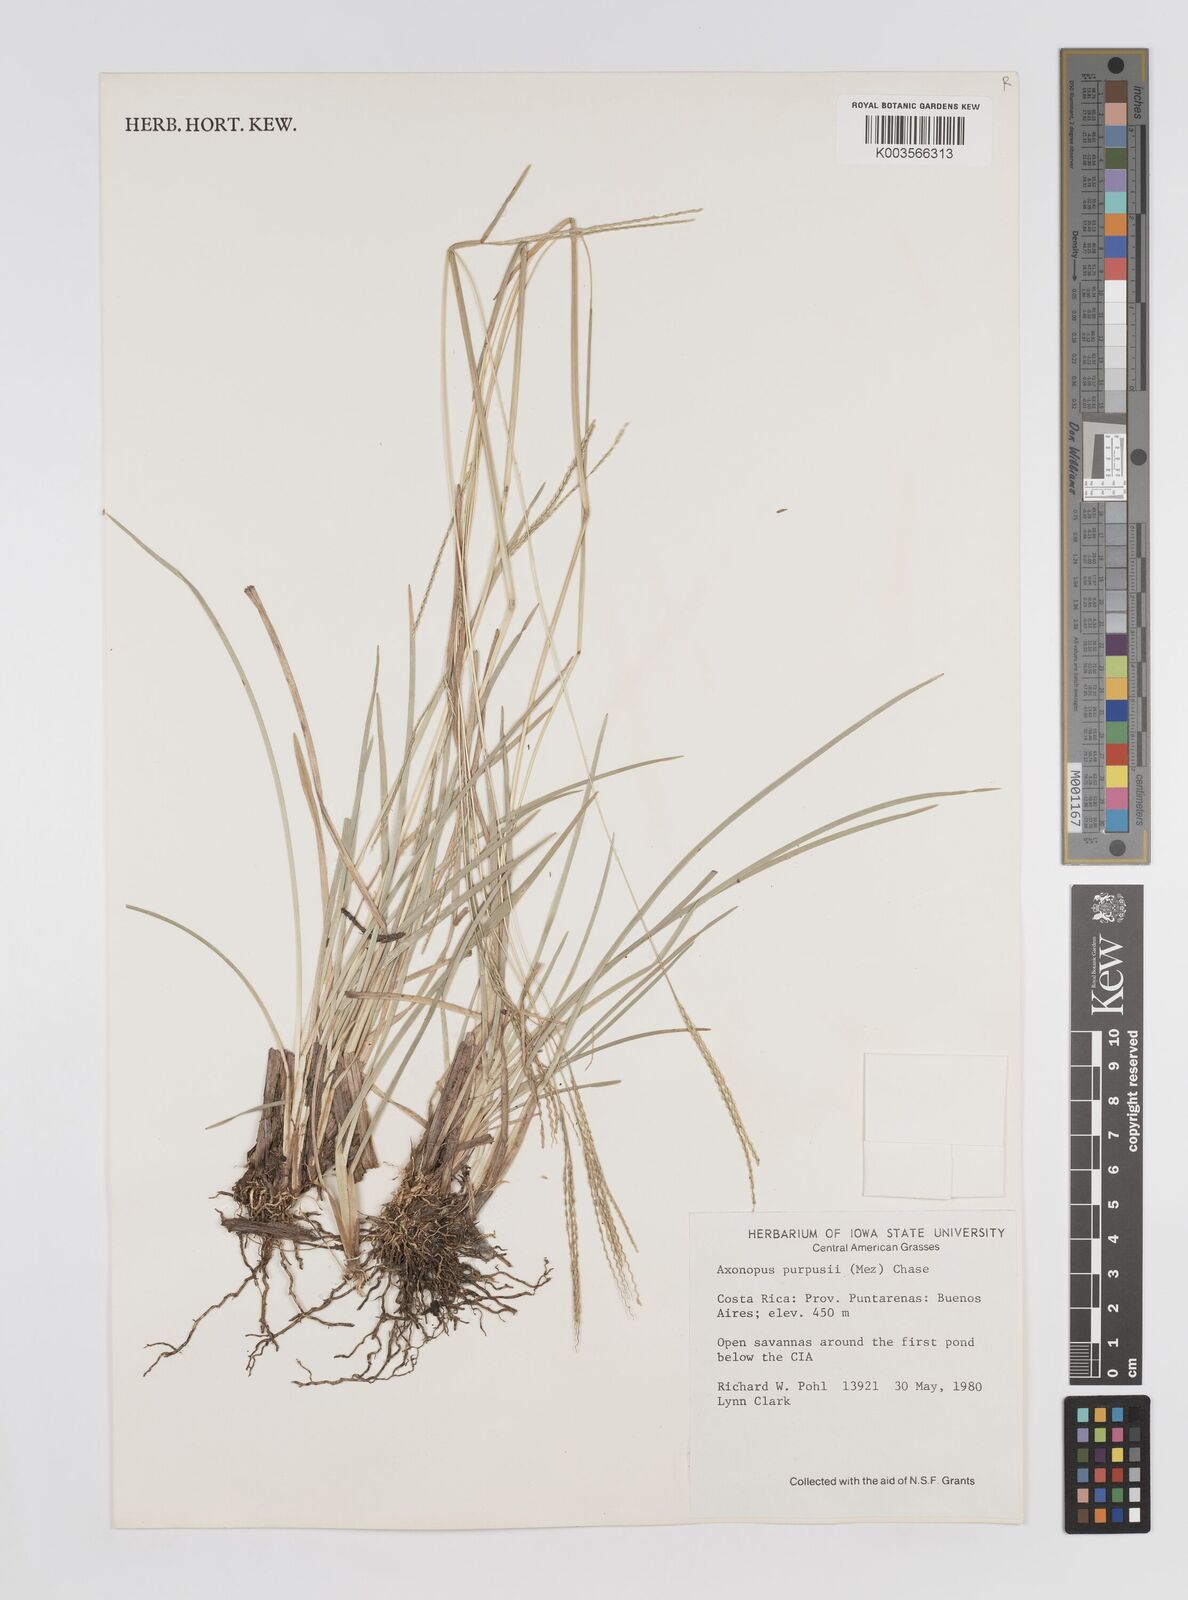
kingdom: Plantae
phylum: Tracheophyta
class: Liliopsida
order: Poales
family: Poaceae
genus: Axonopus
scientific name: Axonopus purpusii
